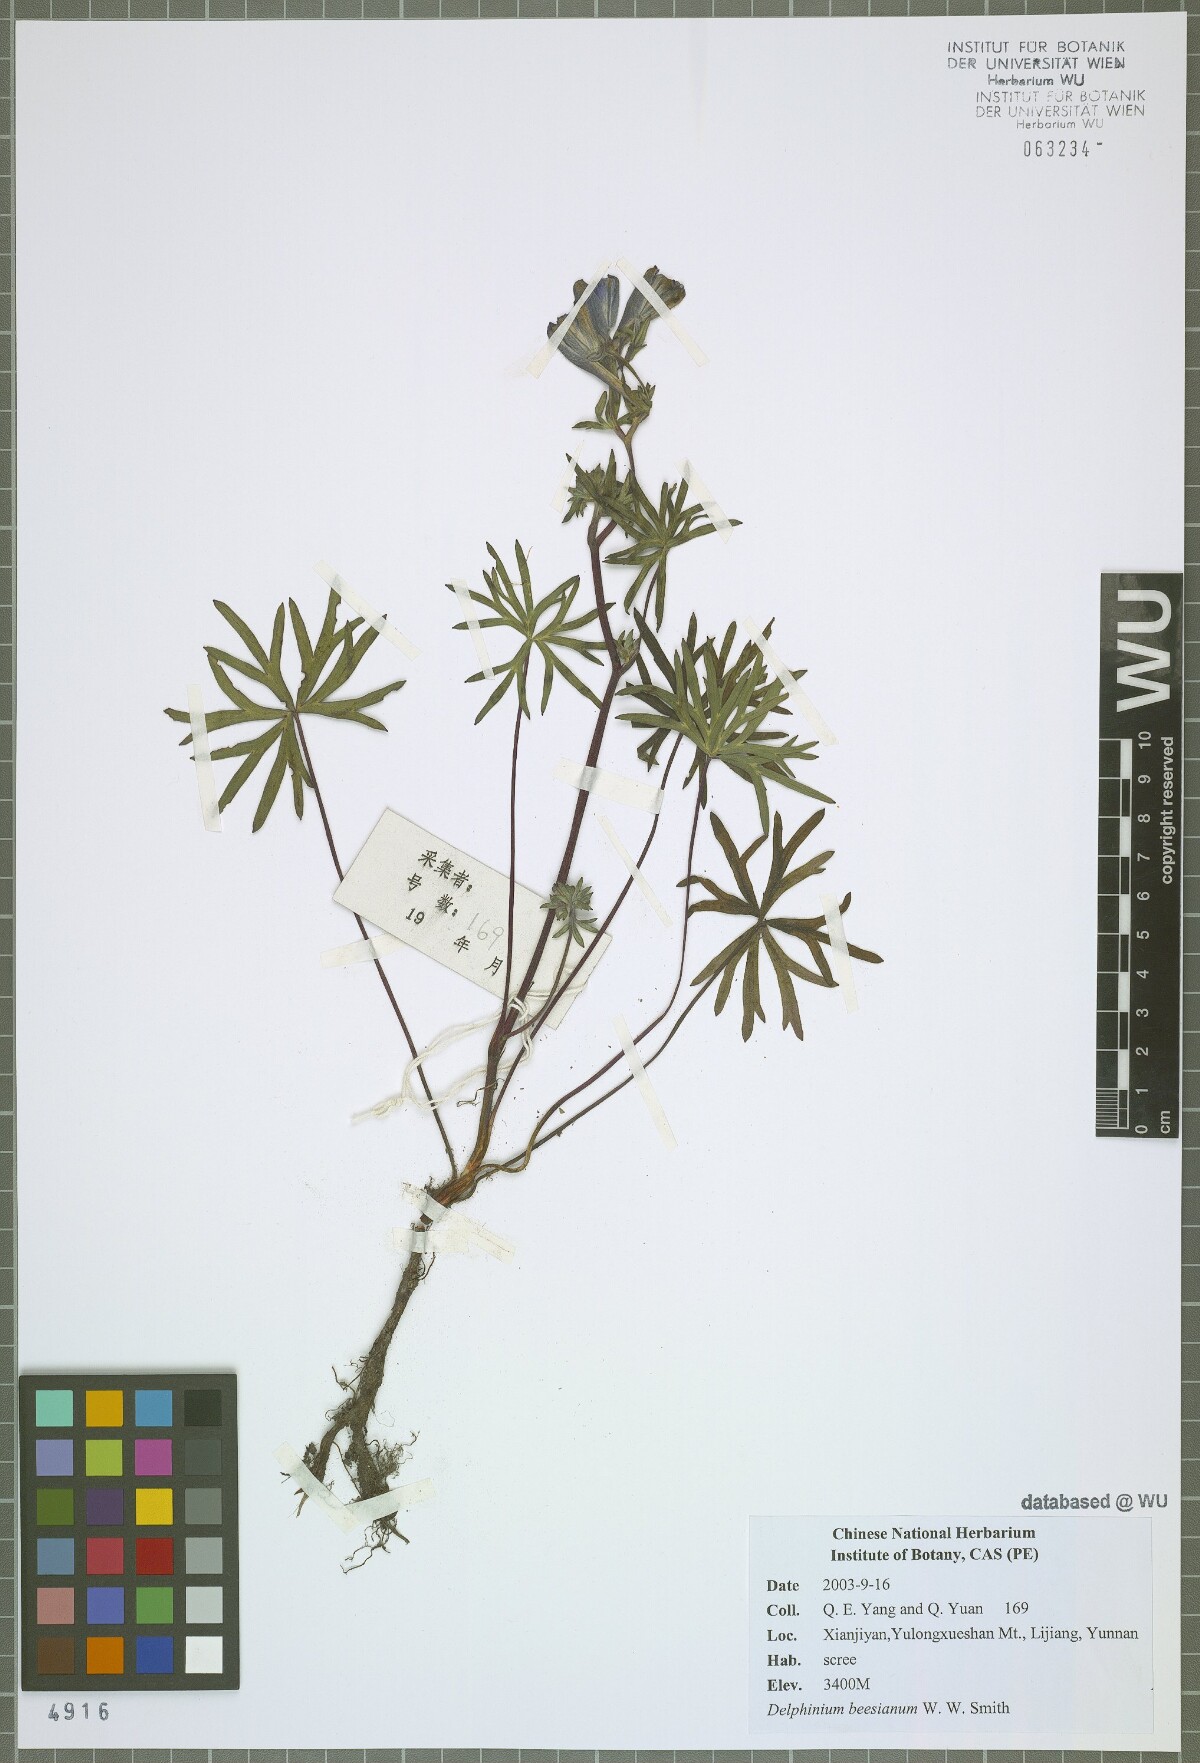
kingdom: Plantae
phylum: Tracheophyta
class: Magnoliopsida
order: Ranunculales
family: Ranunculaceae
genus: Delphinium
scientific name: Delphinium beesianum
